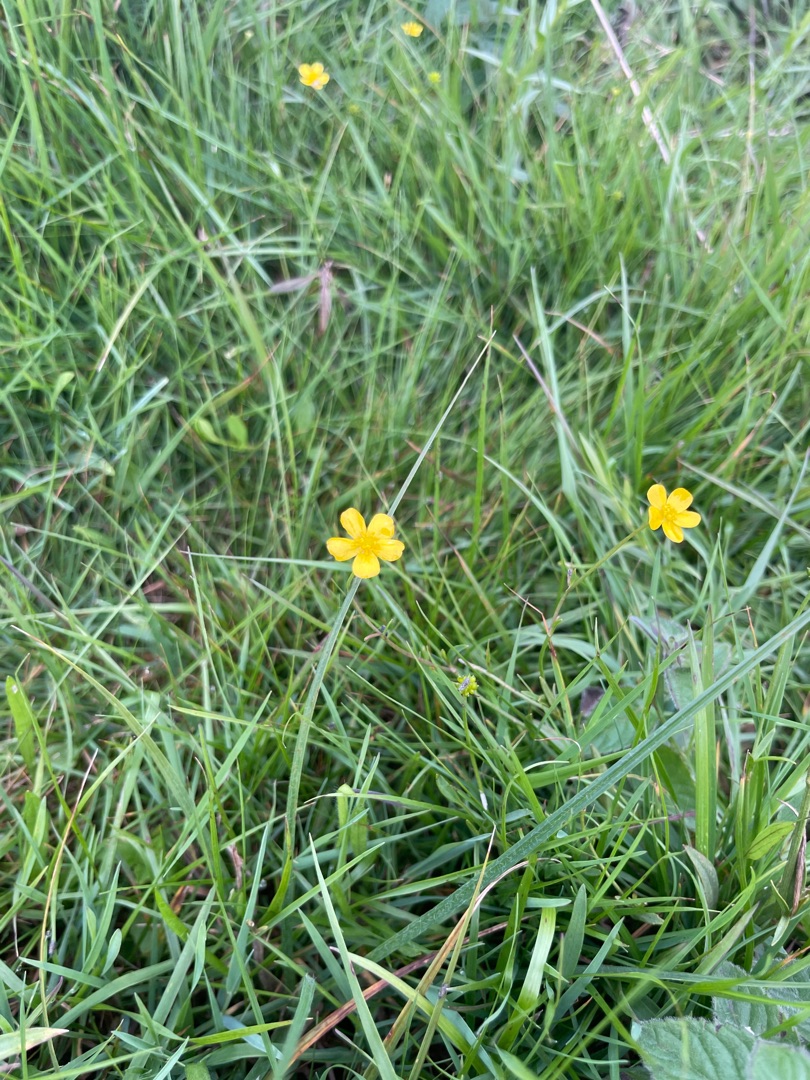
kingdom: Plantae
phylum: Tracheophyta
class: Magnoliopsida
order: Ranunculales
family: Ranunculaceae
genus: Ranunculus
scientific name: Ranunculus flammula
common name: Kær-ranunkel
